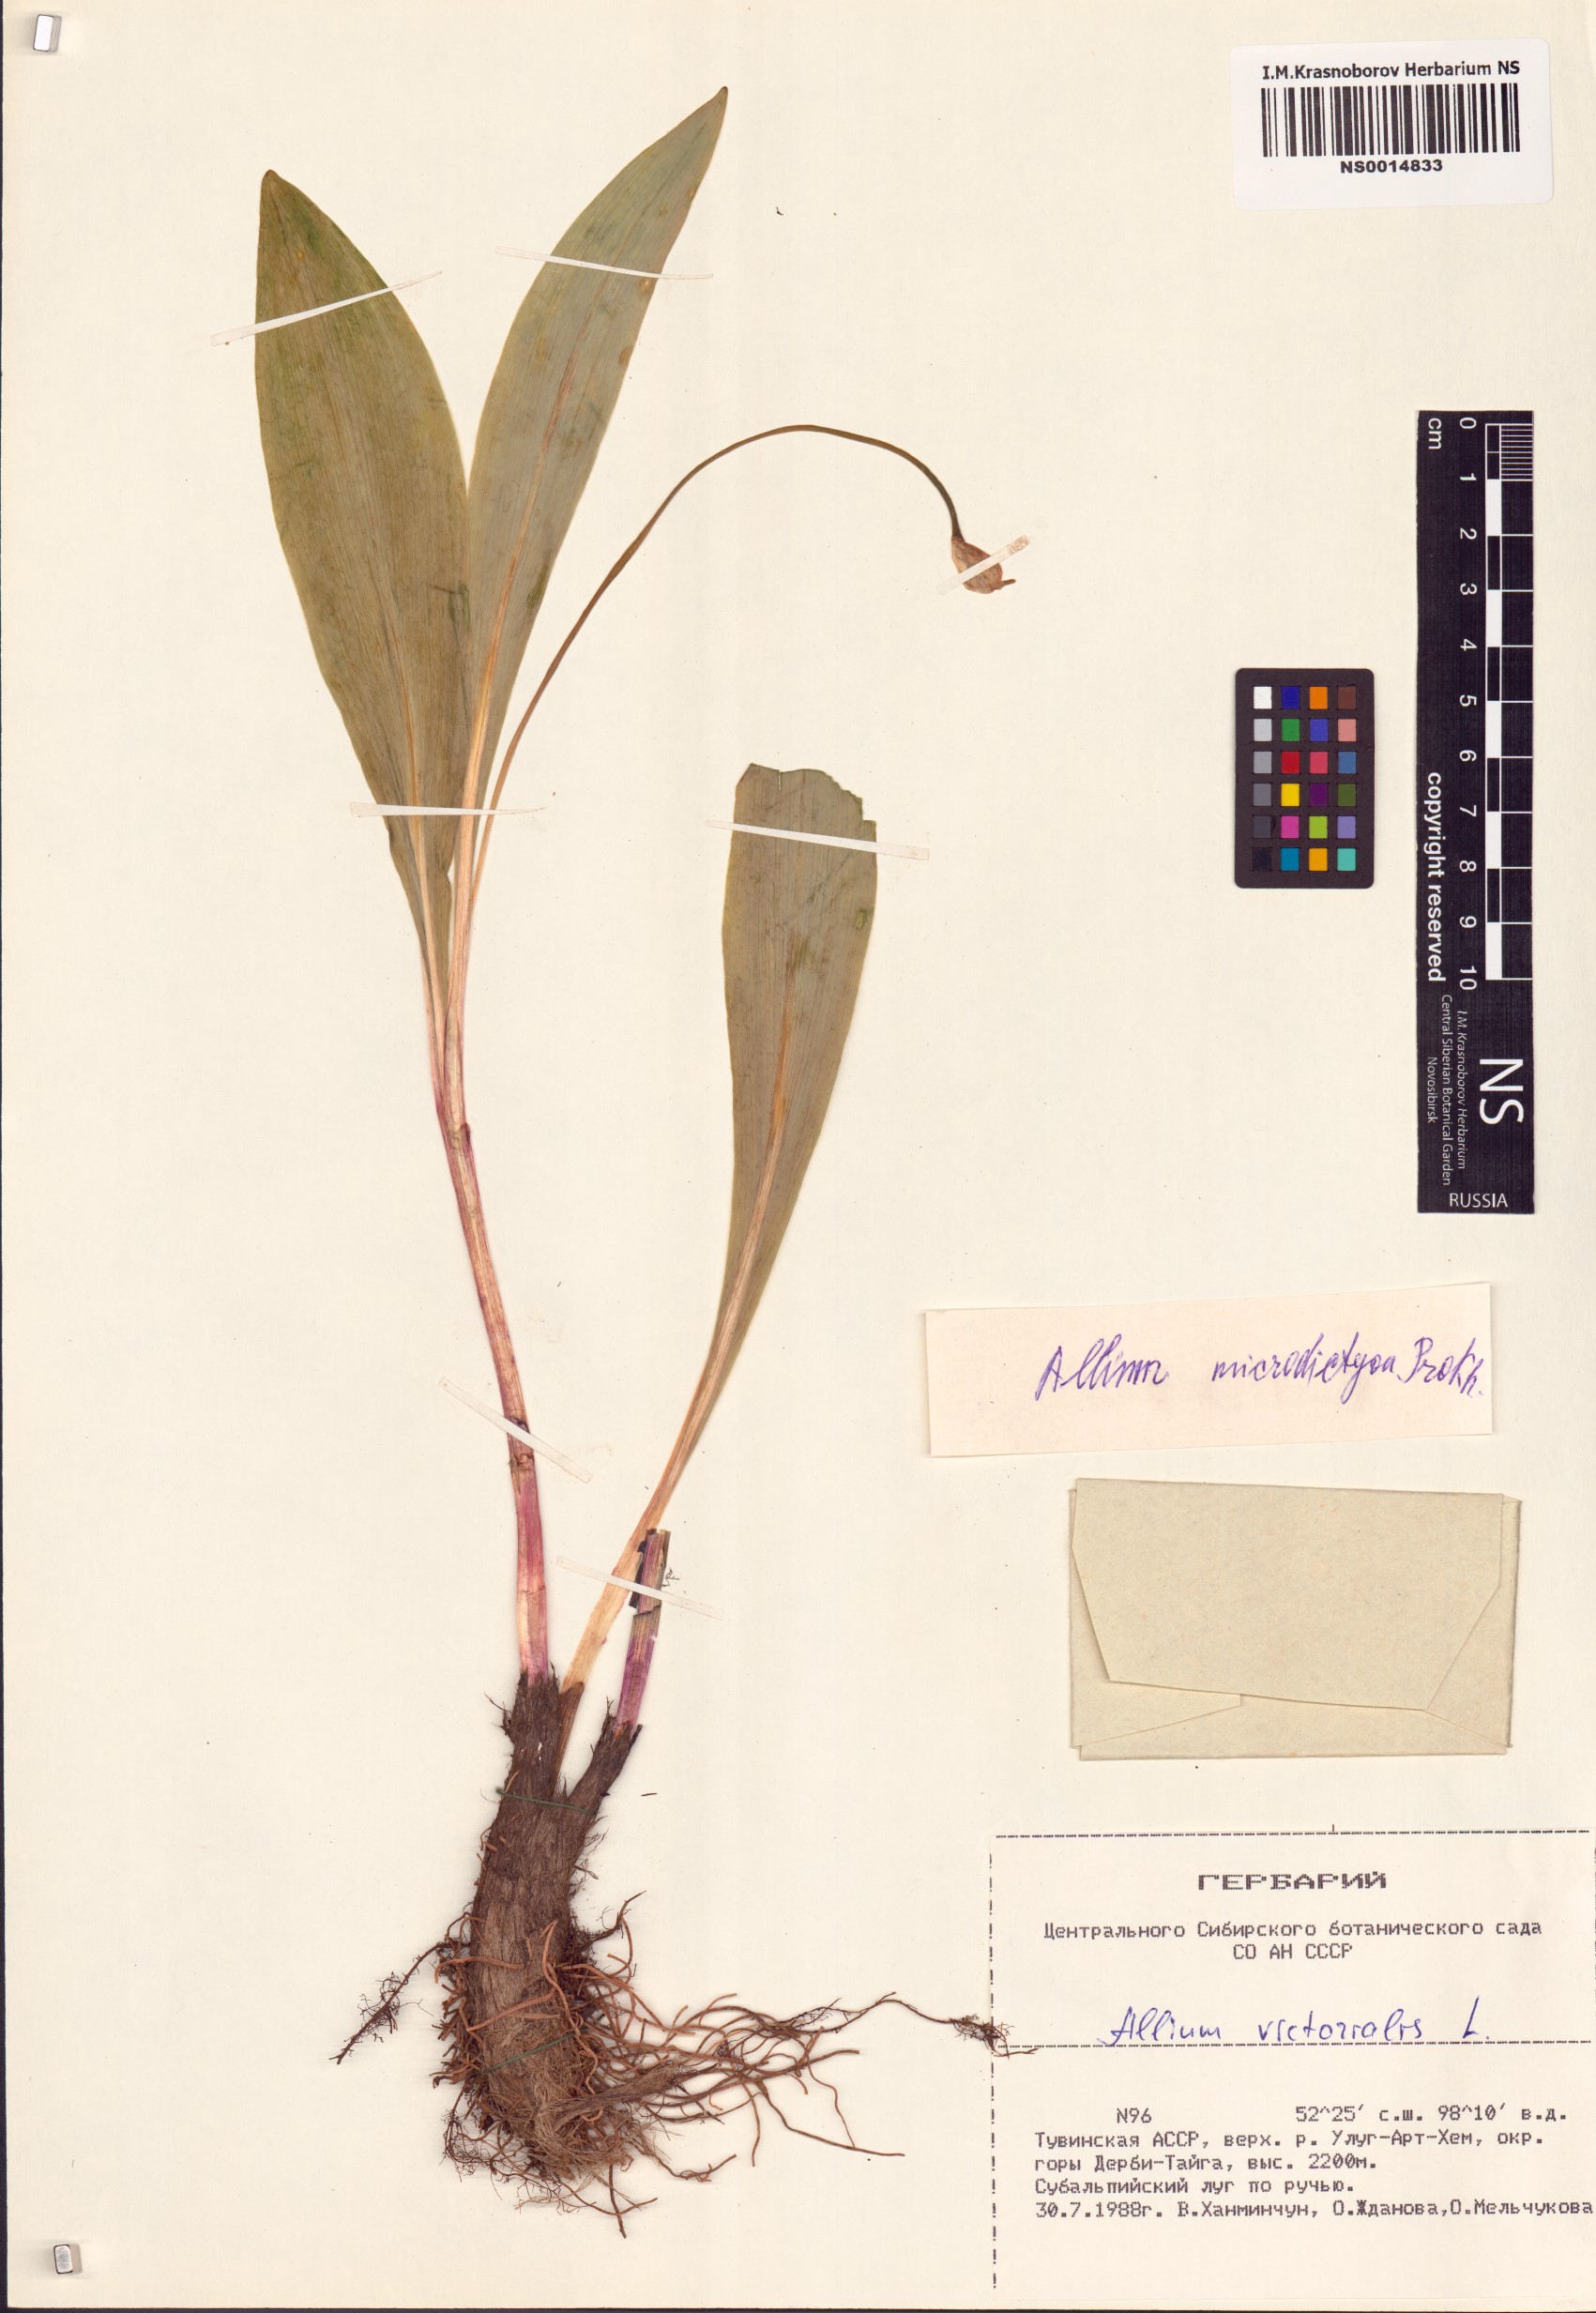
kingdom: Plantae
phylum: Tracheophyta
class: Liliopsida
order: Asparagales
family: Amaryllidaceae
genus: Allium
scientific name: Allium microdictyon
